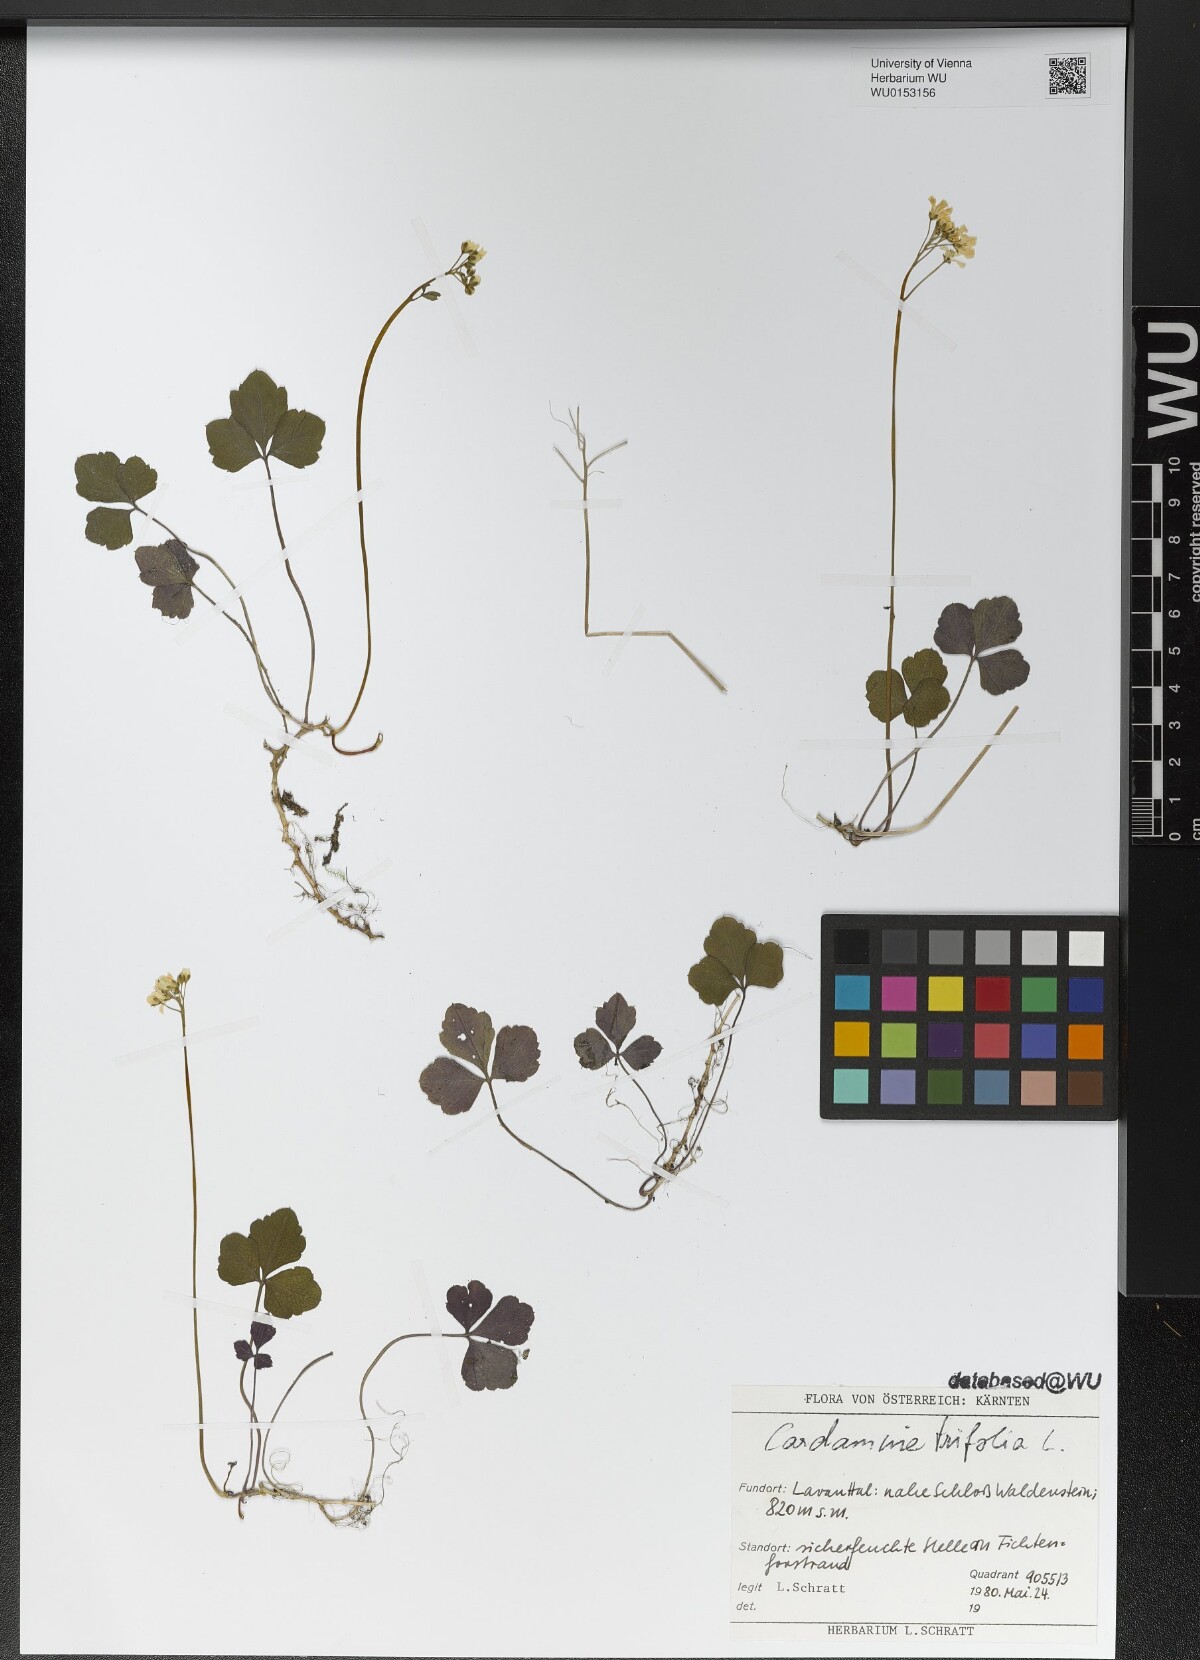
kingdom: Plantae
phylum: Tracheophyta
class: Magnoliopsida
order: Brassicales
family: Brassicaceae
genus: Cardamine
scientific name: Cardamine trifolia
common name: Trefoil cress
